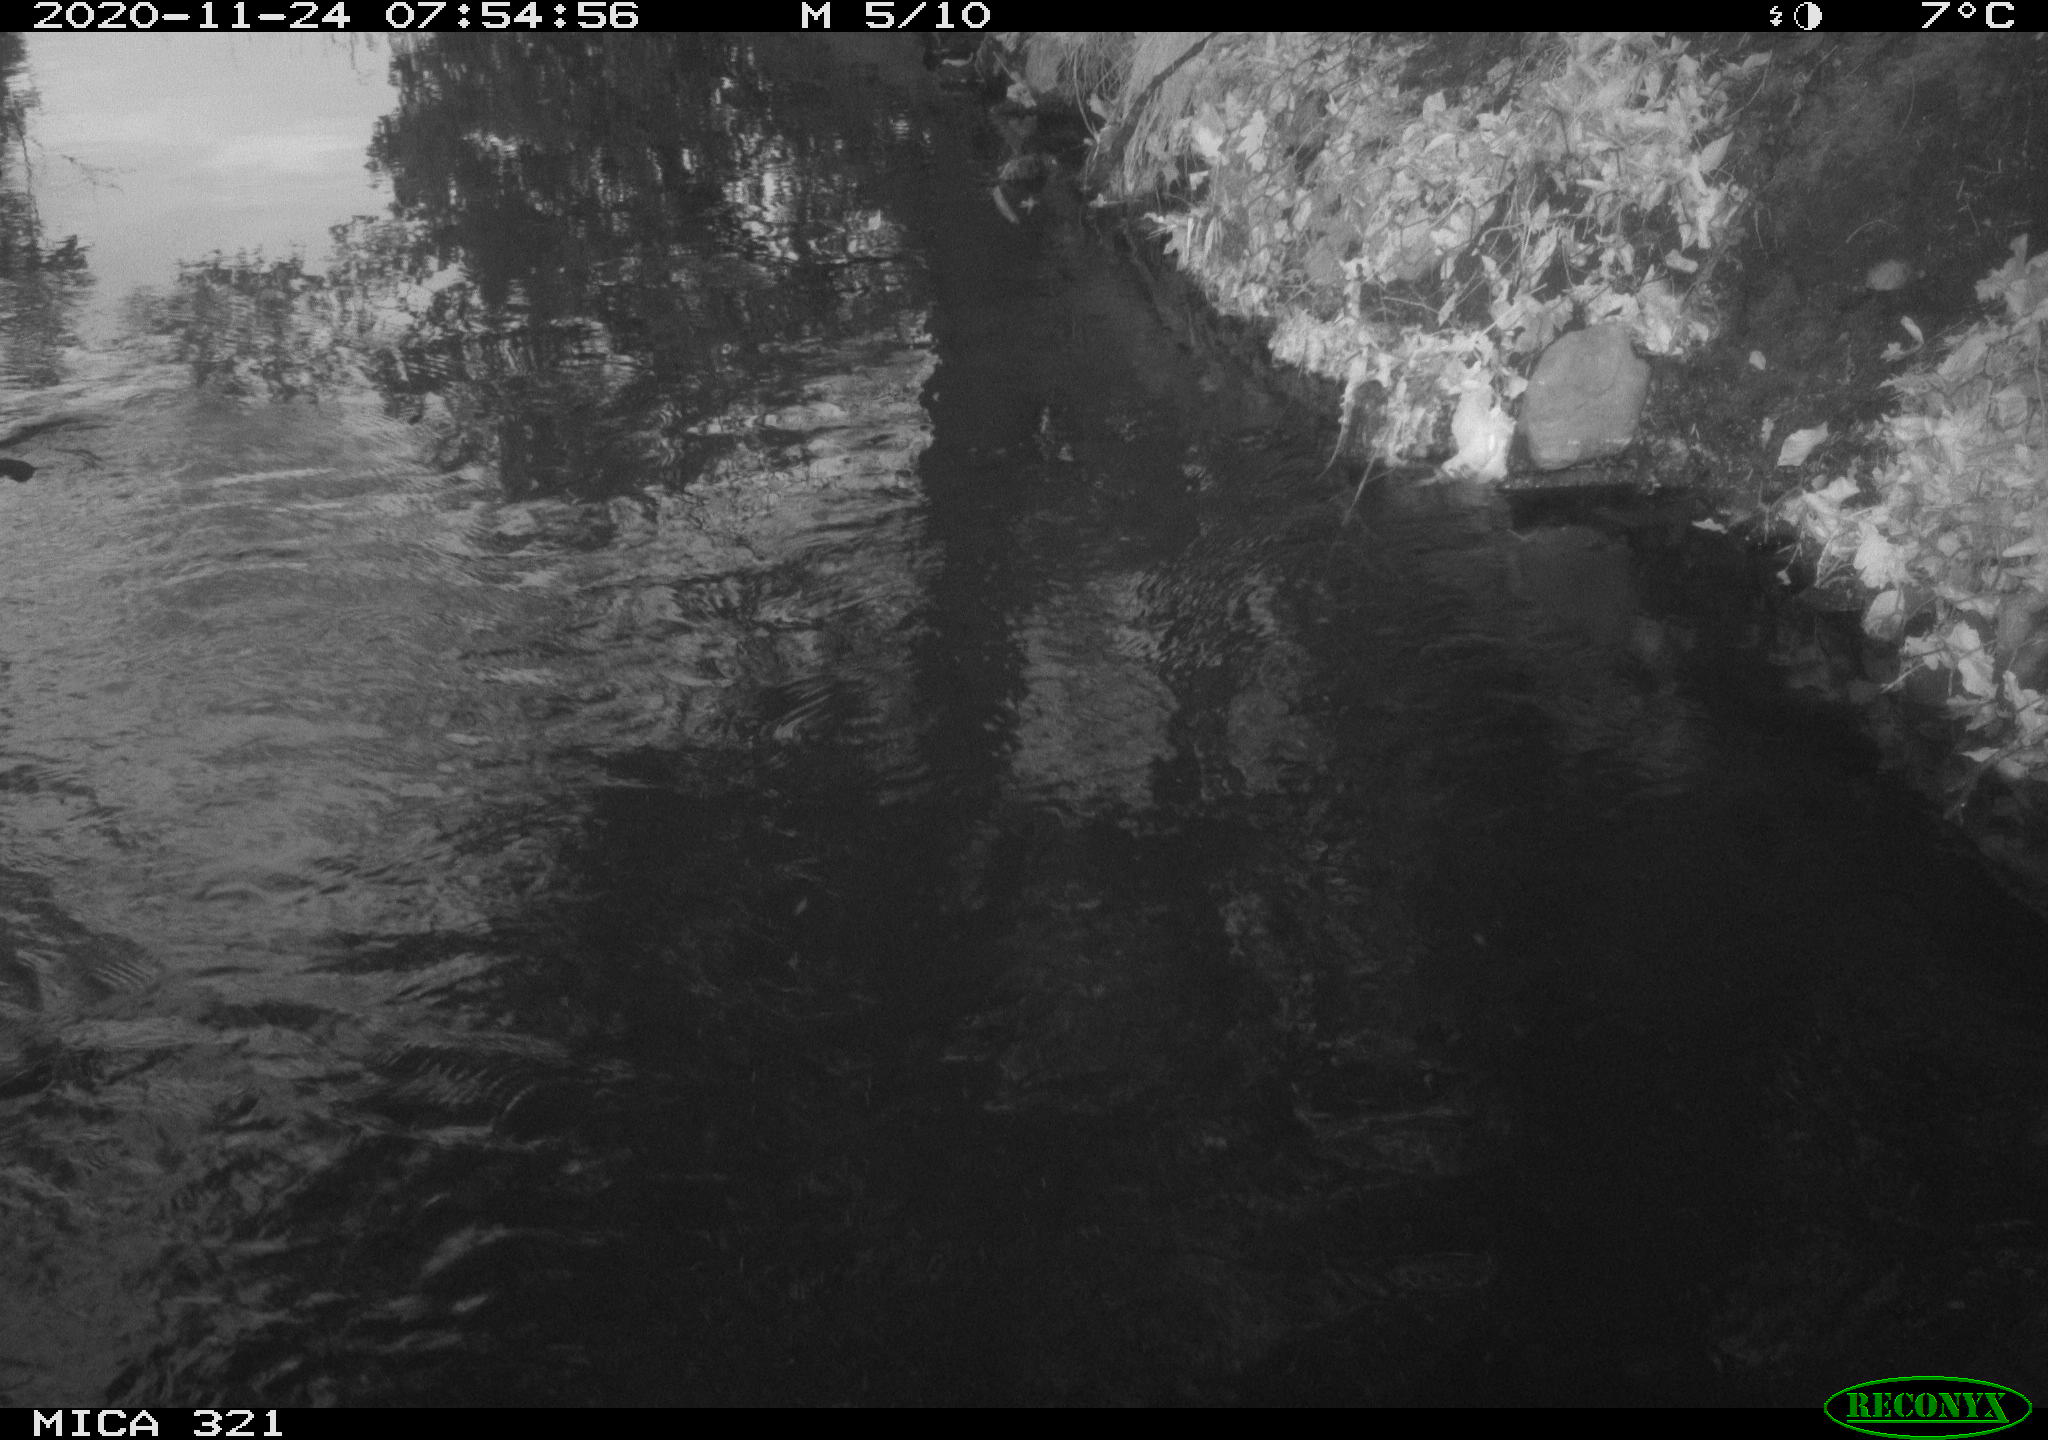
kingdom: Animalia
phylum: Chordata
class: Aves
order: Anseriformes
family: Anatidae
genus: Anas
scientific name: Anas platyrhynchos
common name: Mallard
